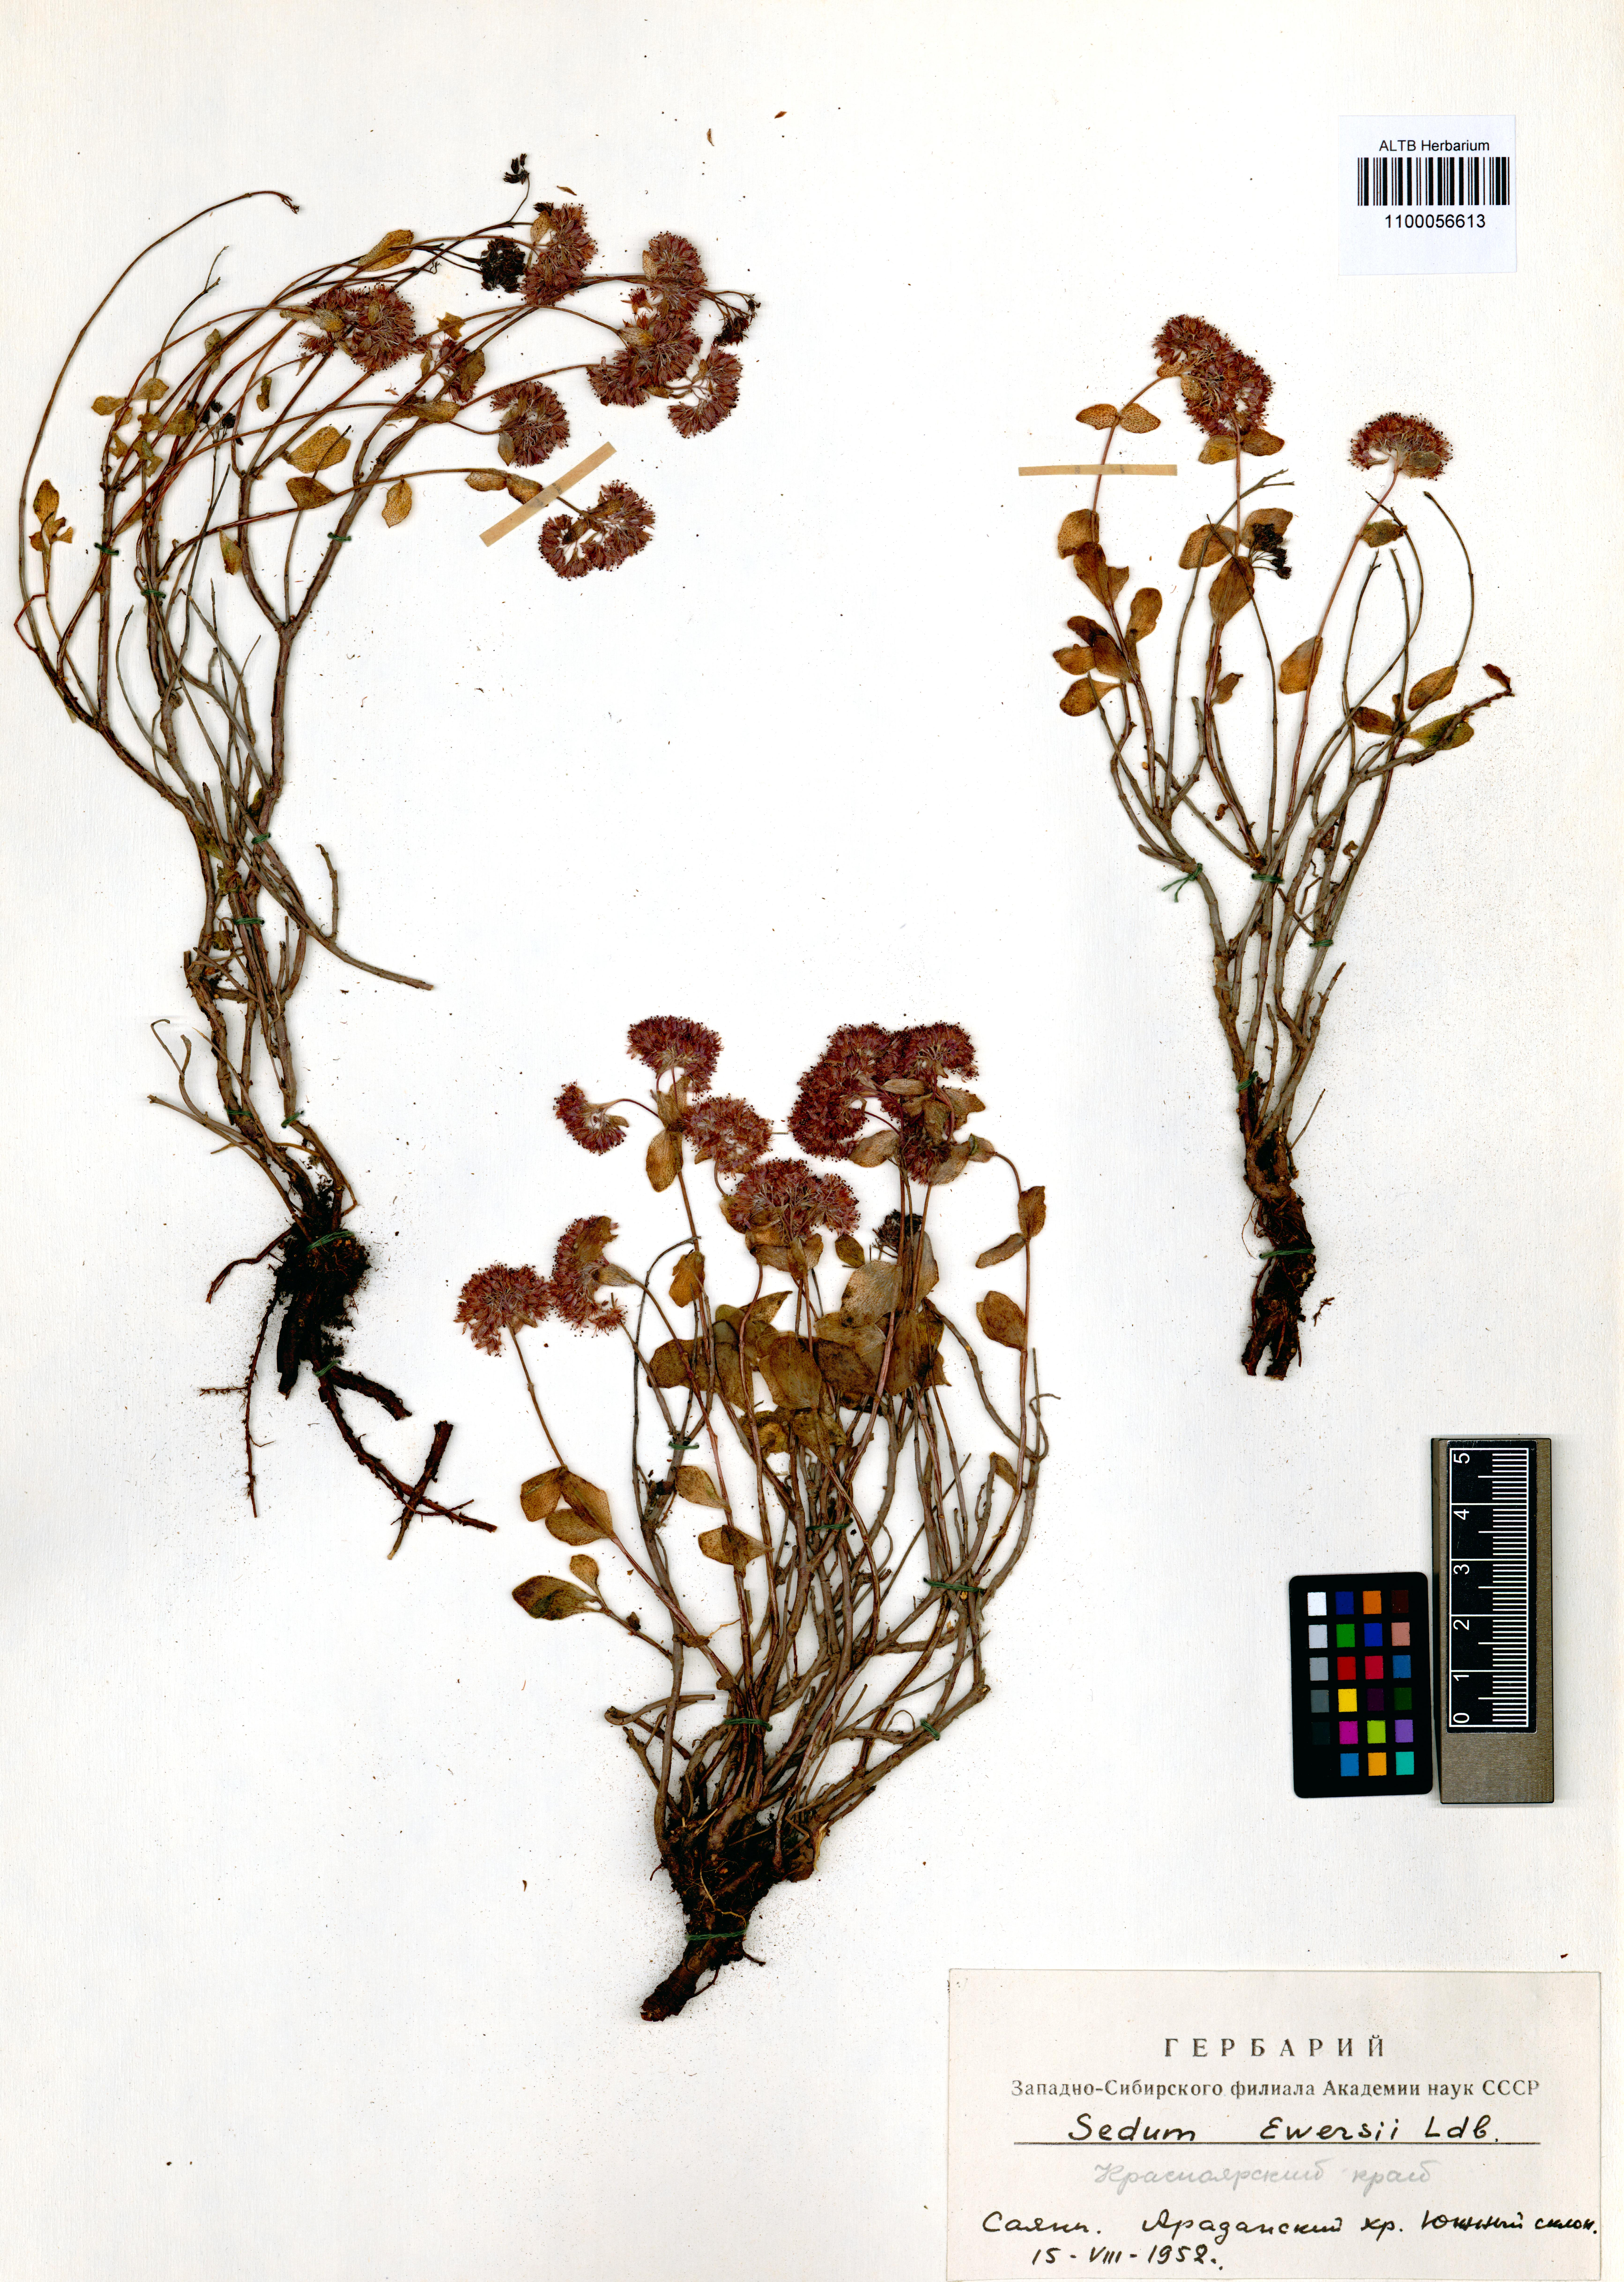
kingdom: Plantae
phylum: Tracheophyta
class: Magnoliopsida
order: Saxifragales
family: Crassulaceae
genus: Hylotelephium
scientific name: Hylotelephium ewersii
